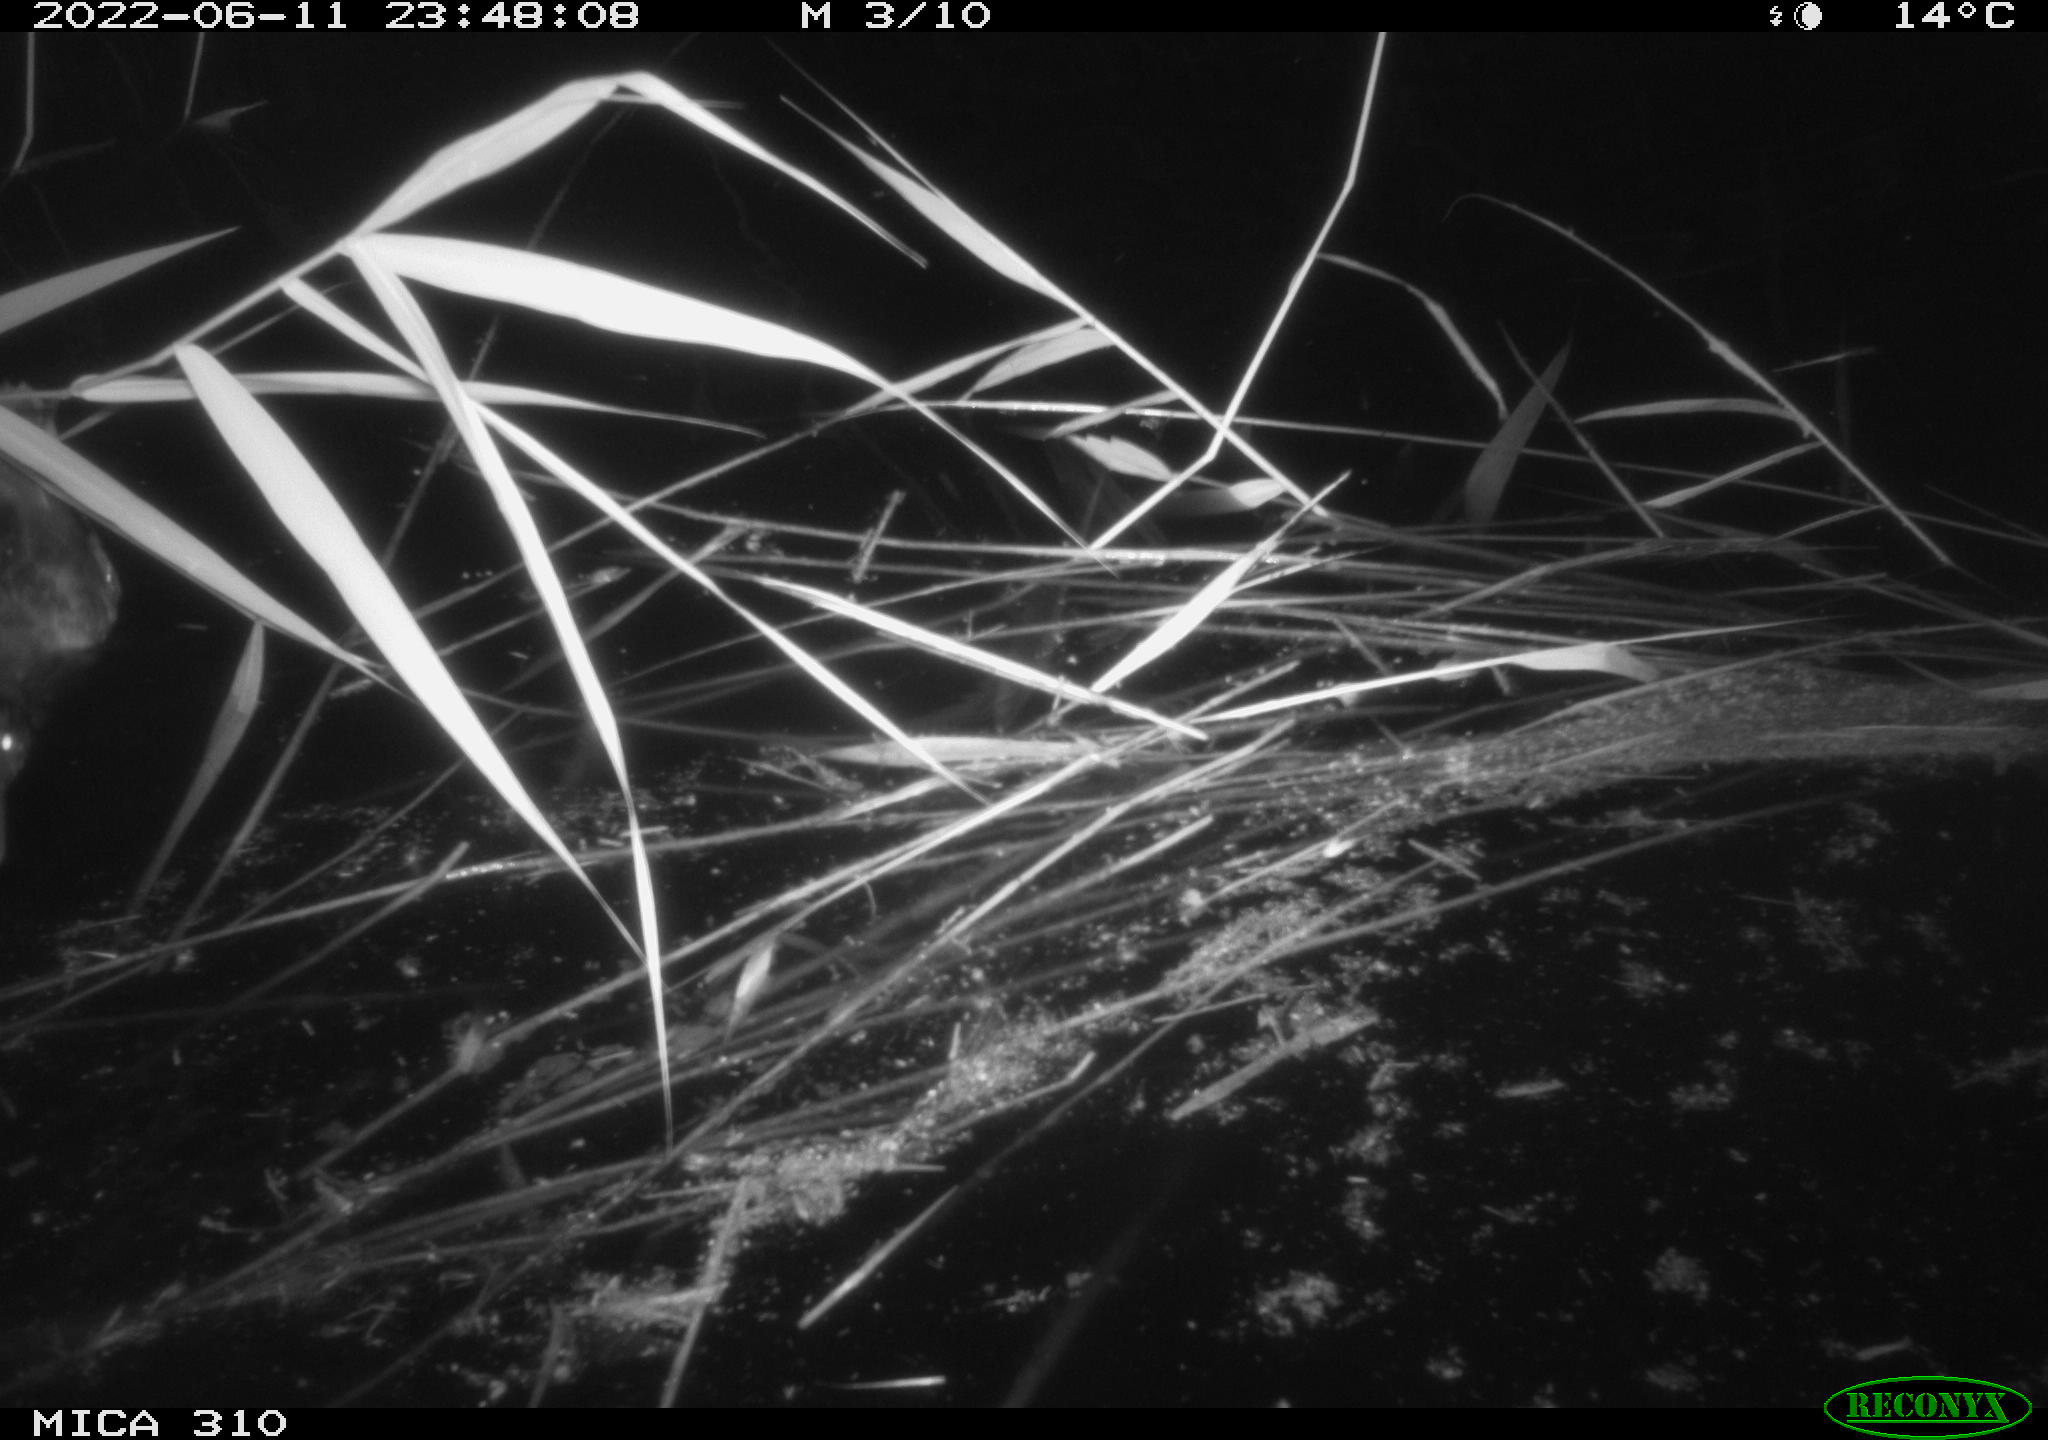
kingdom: Animalia
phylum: Chordata
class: Aves
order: Anseriformes
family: Anatidae
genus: Anas
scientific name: Anas platyrhynchos
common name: Mallard
